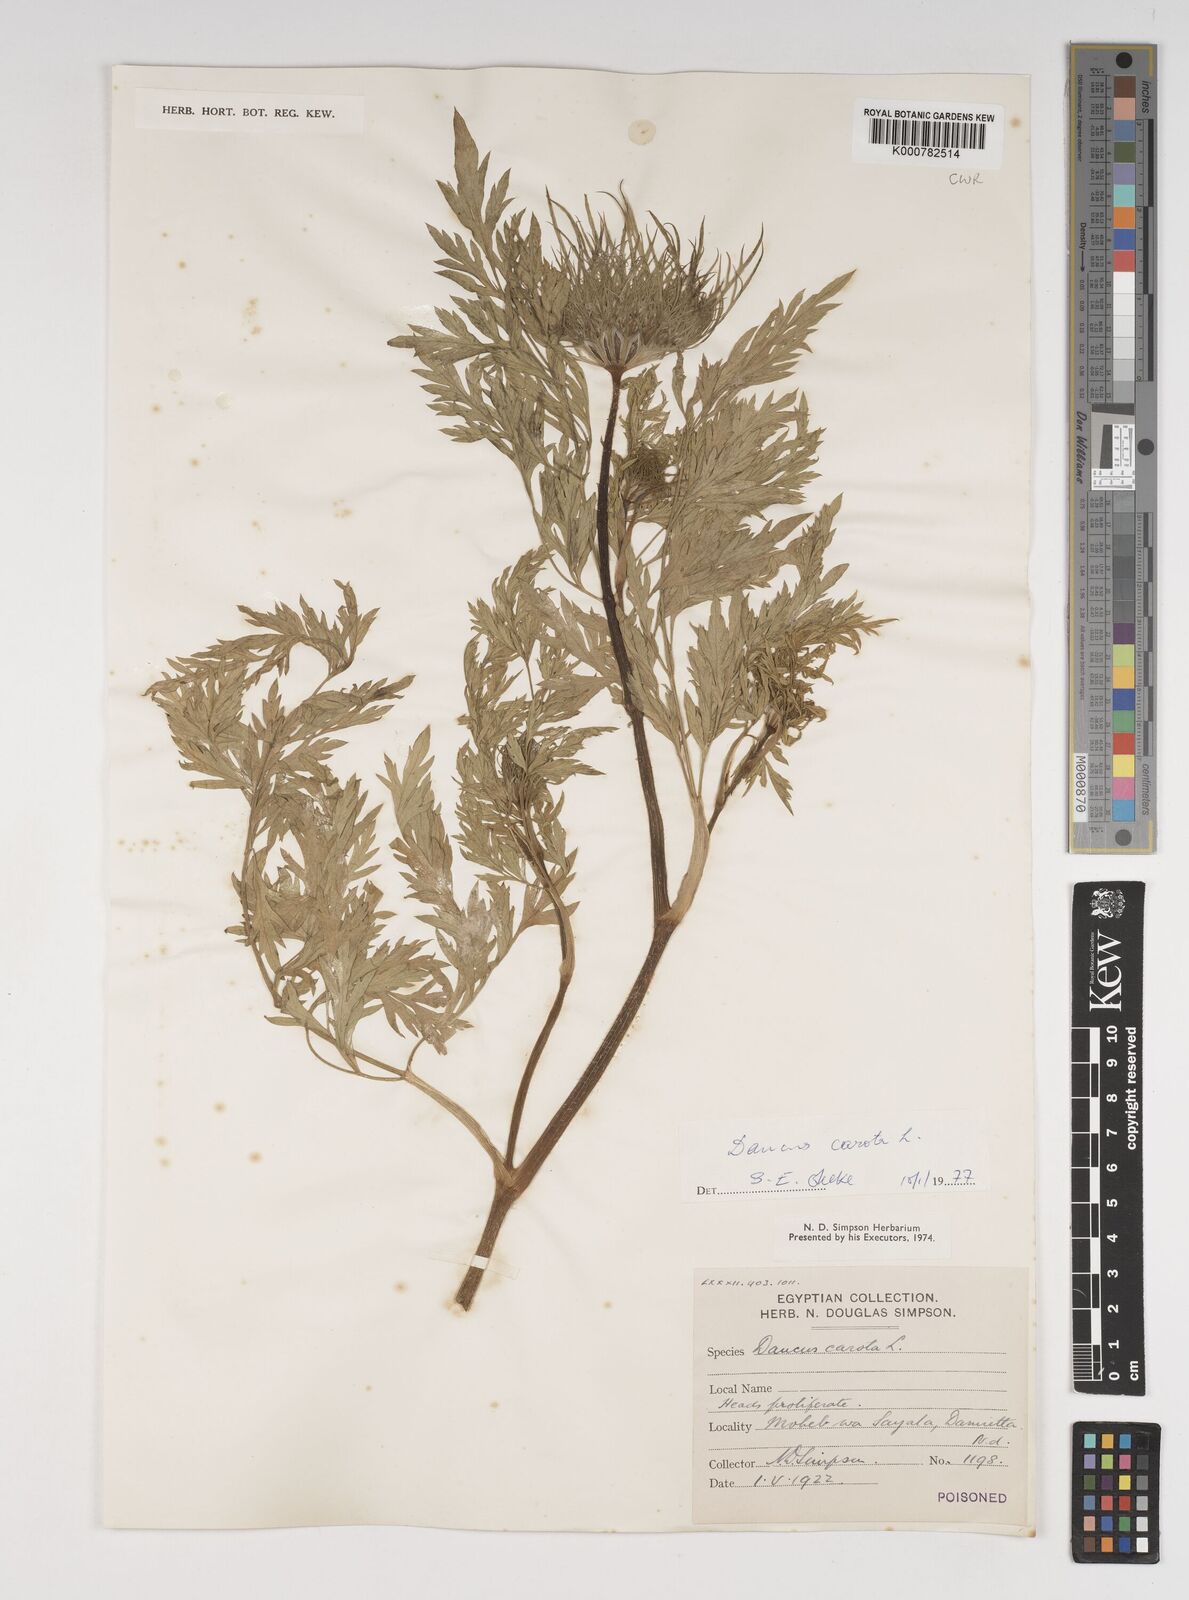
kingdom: Plantae
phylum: Tracheophyta
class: Magnoliopsida
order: Apiales
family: Apiaceae
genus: Daucus
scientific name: Daucus carota
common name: Wild carrot
